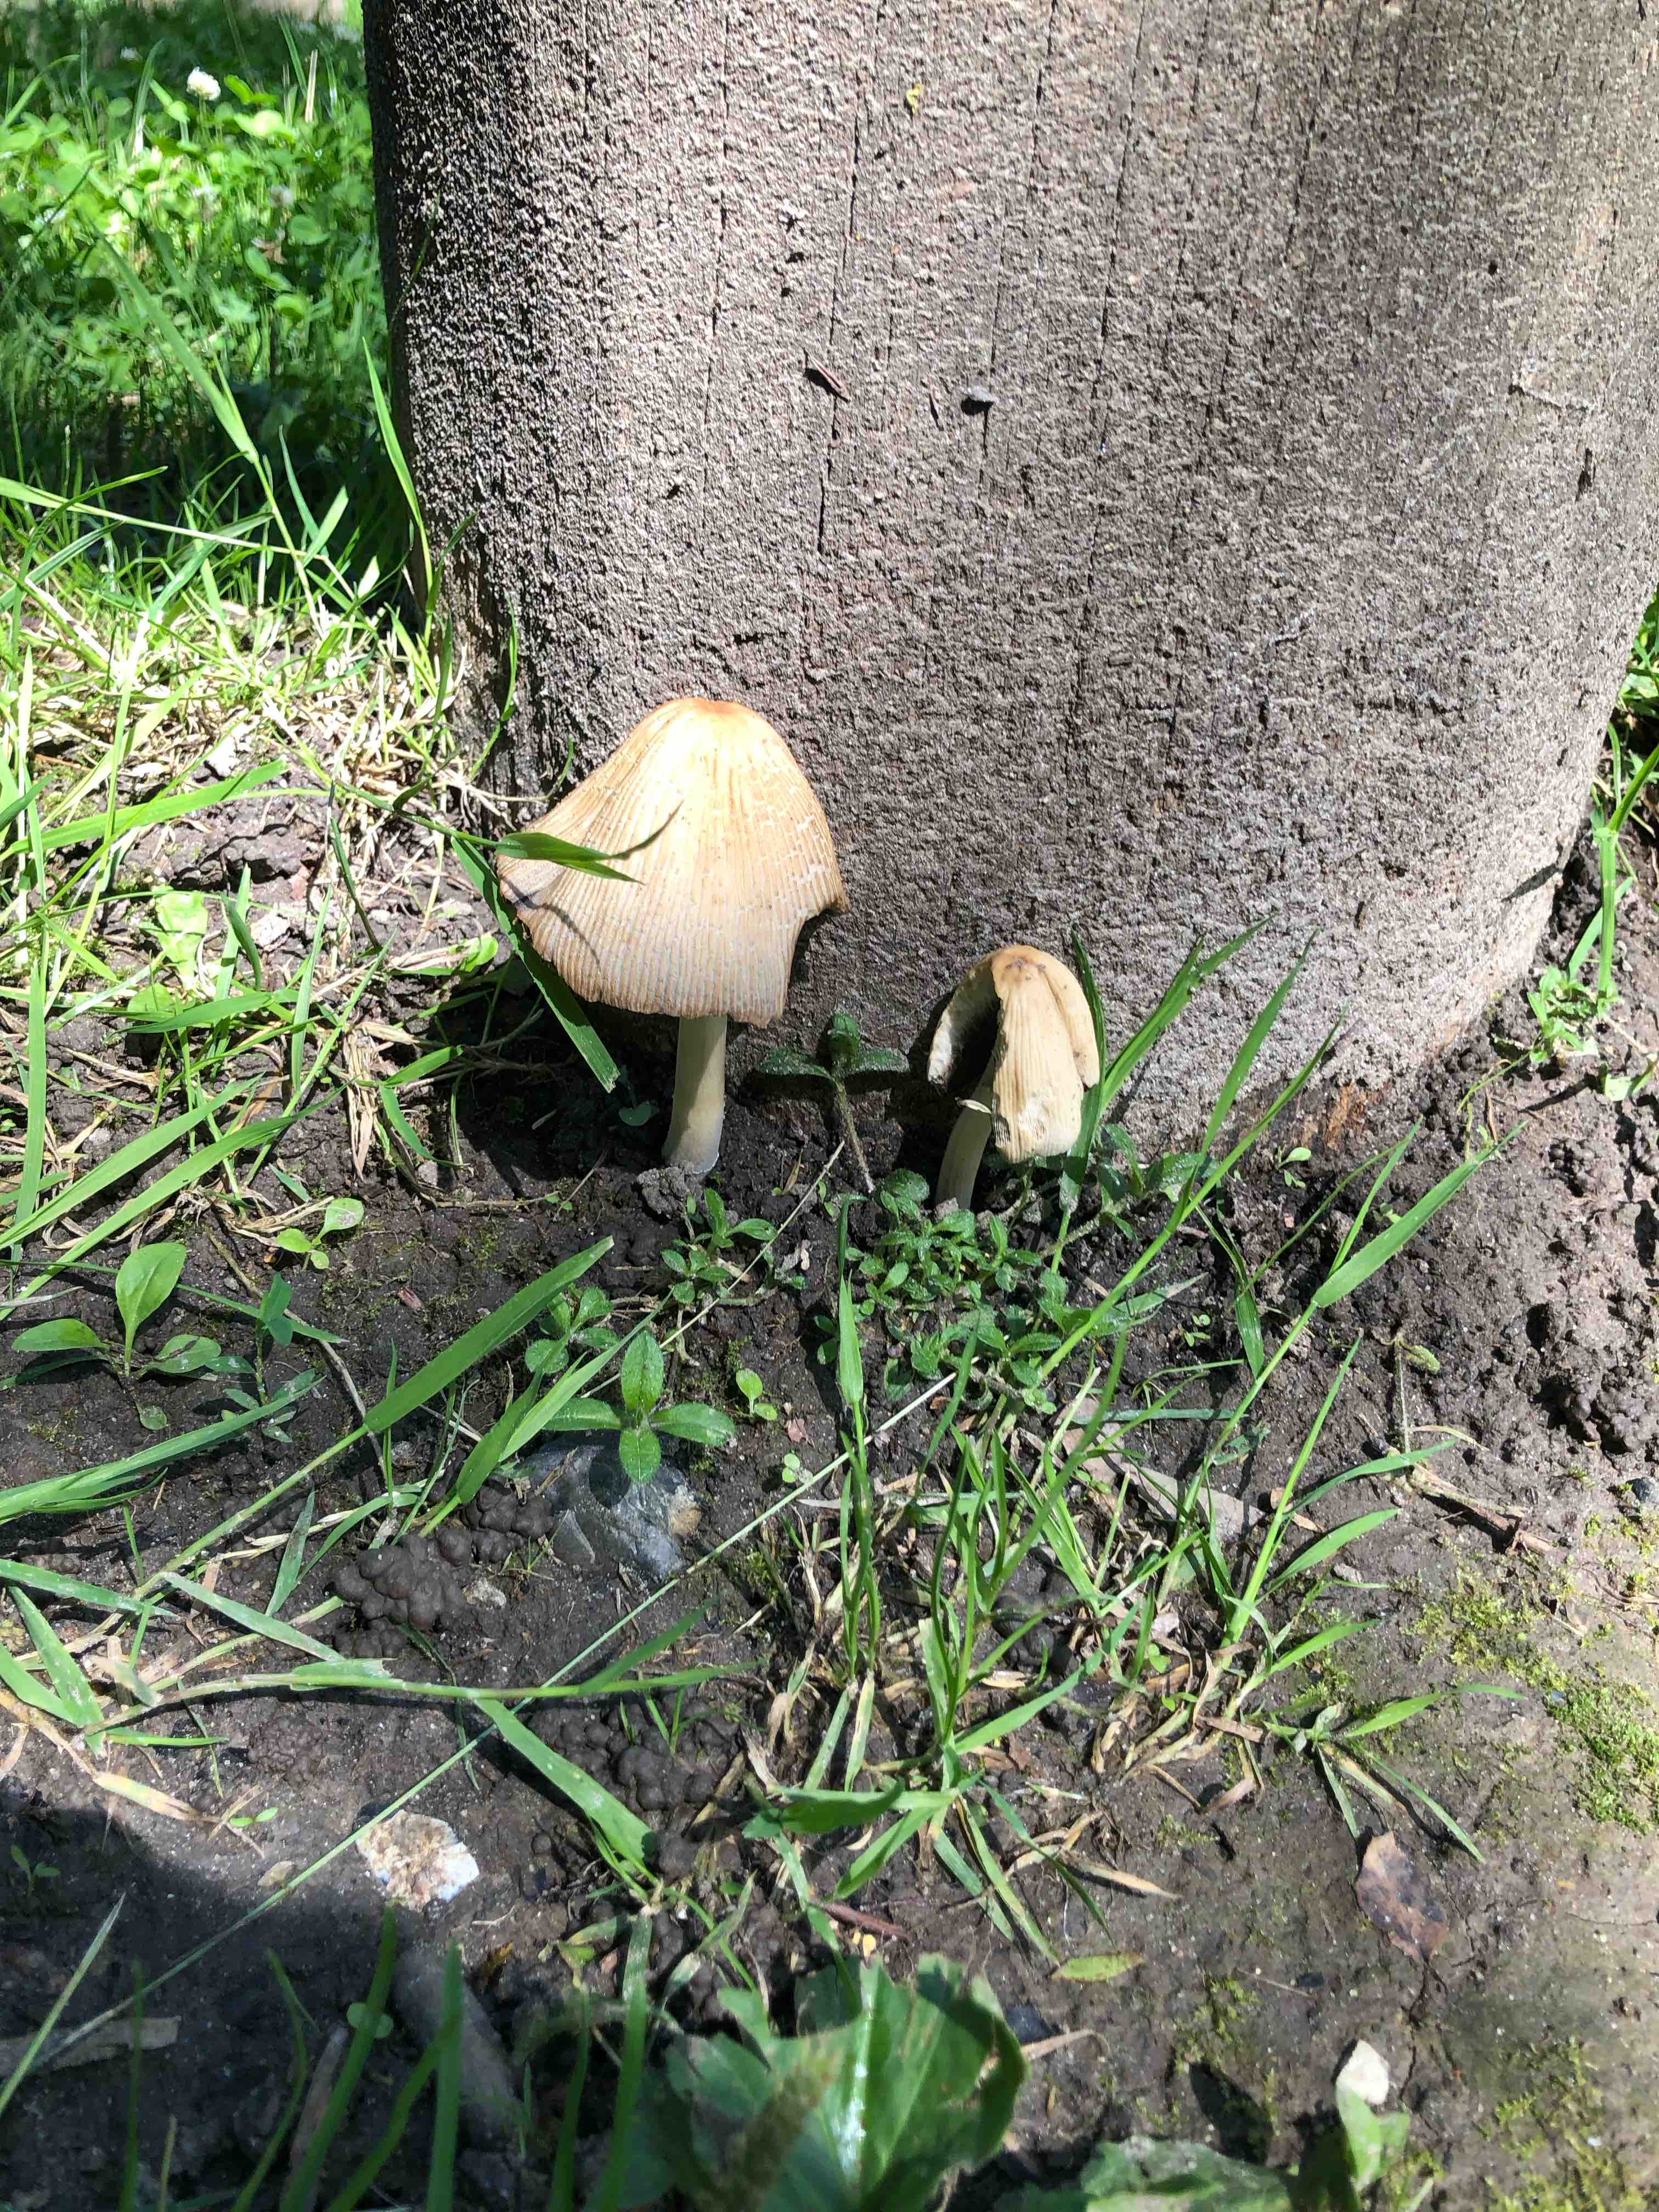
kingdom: Fungi
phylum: Basidiomycota
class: Agaricomycetes
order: Agaricales
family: Psathyrellaceae
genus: Coprinellus
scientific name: Coprinellus
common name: blækhat
